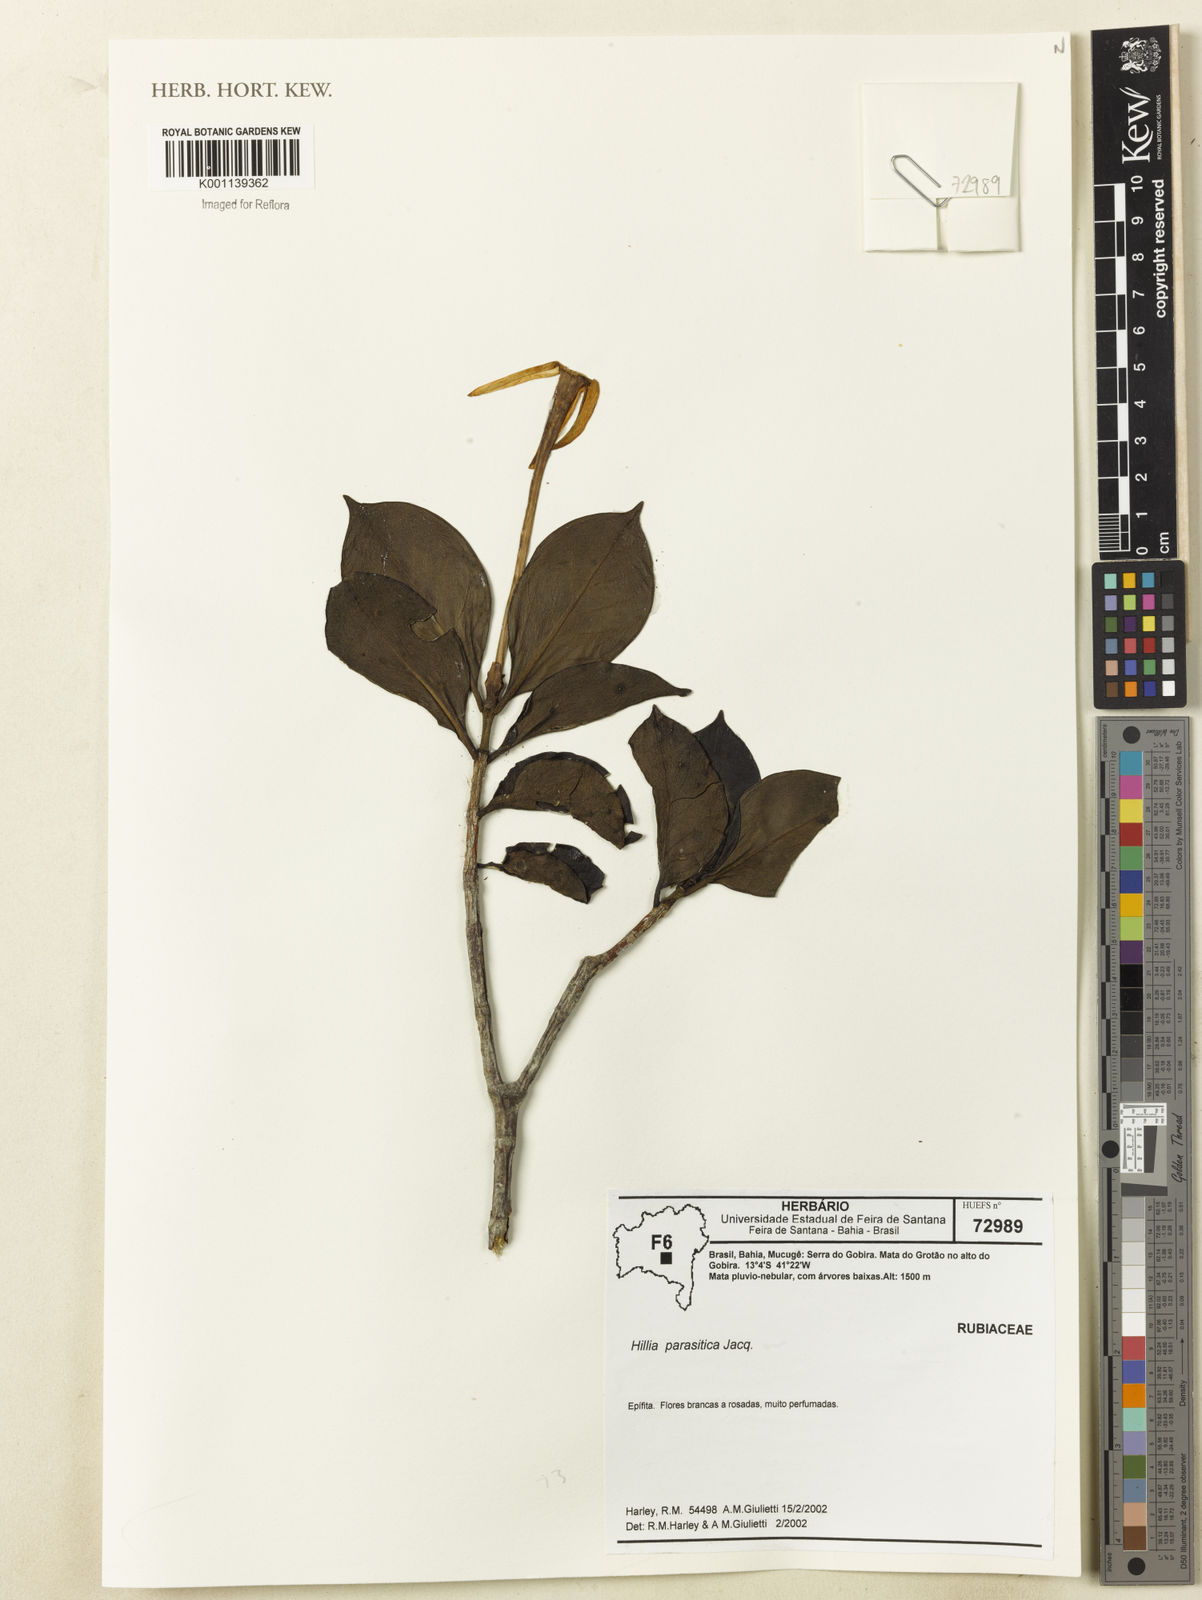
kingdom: Plantae
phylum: Tracheophyta
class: Magnoliopsida
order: Gentianales
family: Rubiaceae
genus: Hillia
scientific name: Hillia parasitica
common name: Morning star
